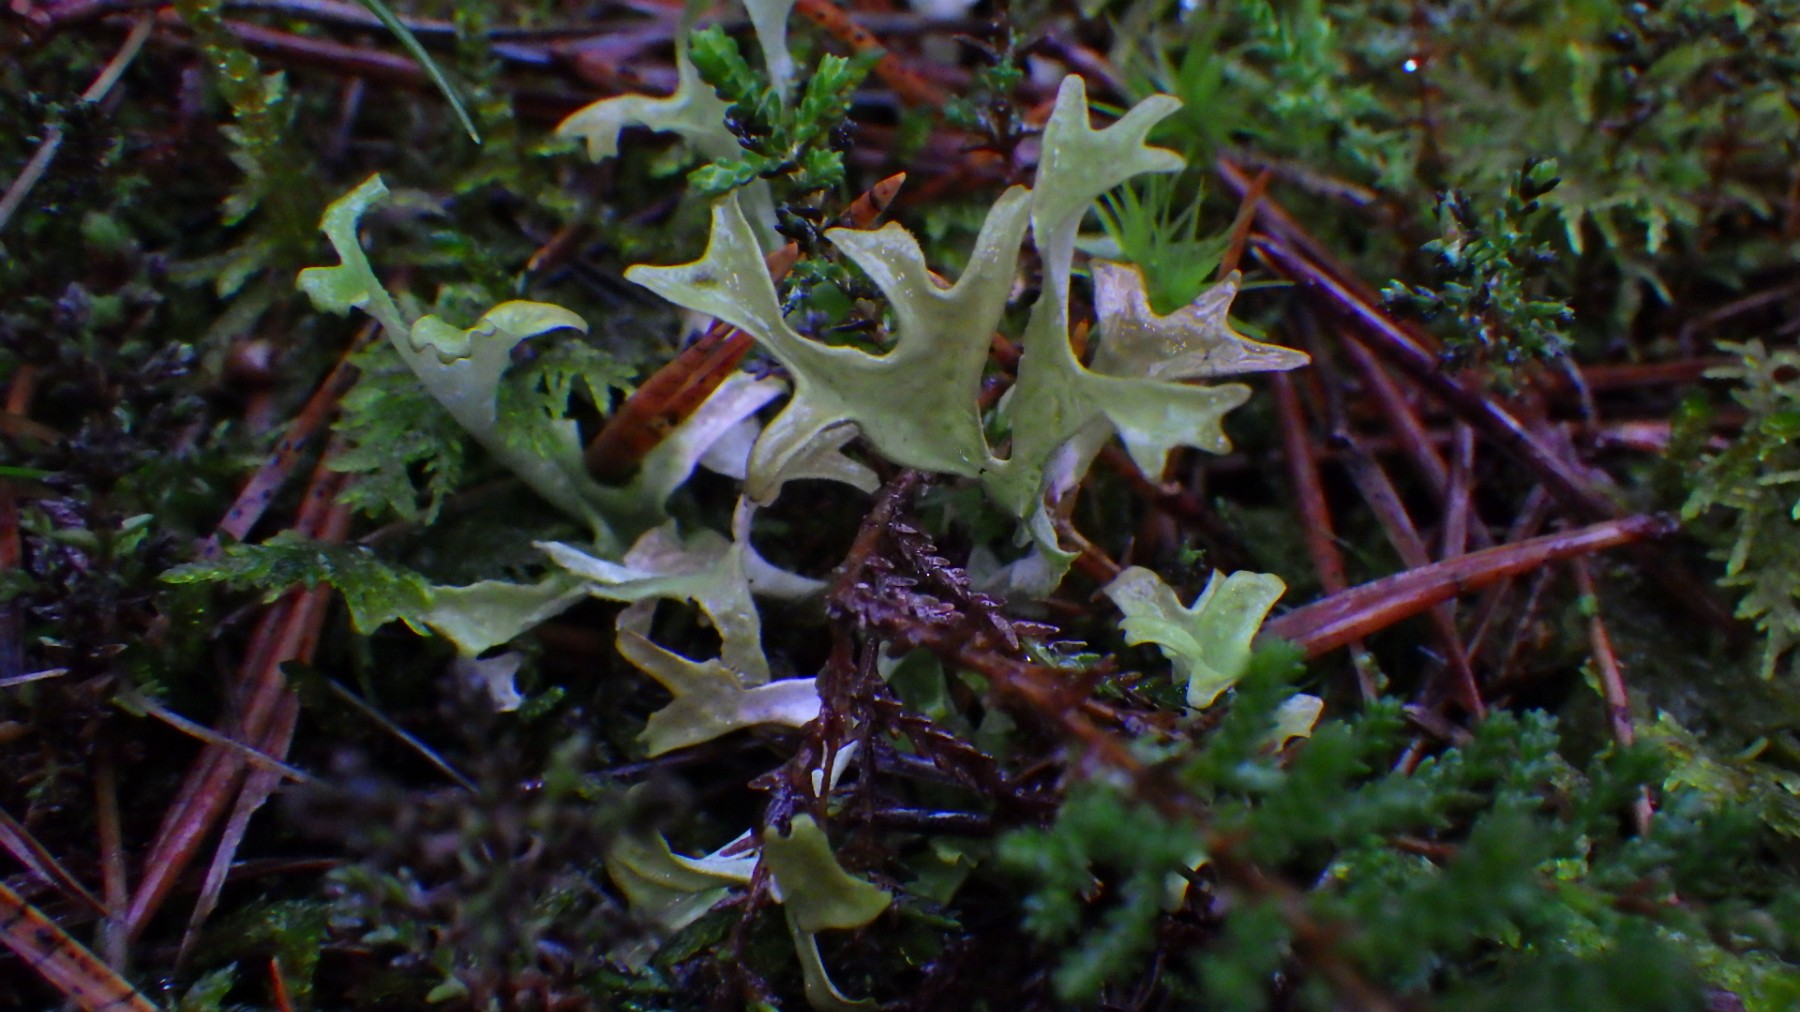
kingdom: Fungi
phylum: Ascomycota
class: Lecanoromycetes
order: Lecanorales
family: Parmeliaceae
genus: Cetraria
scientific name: Cetraria islandica
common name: islandsk kruslav
